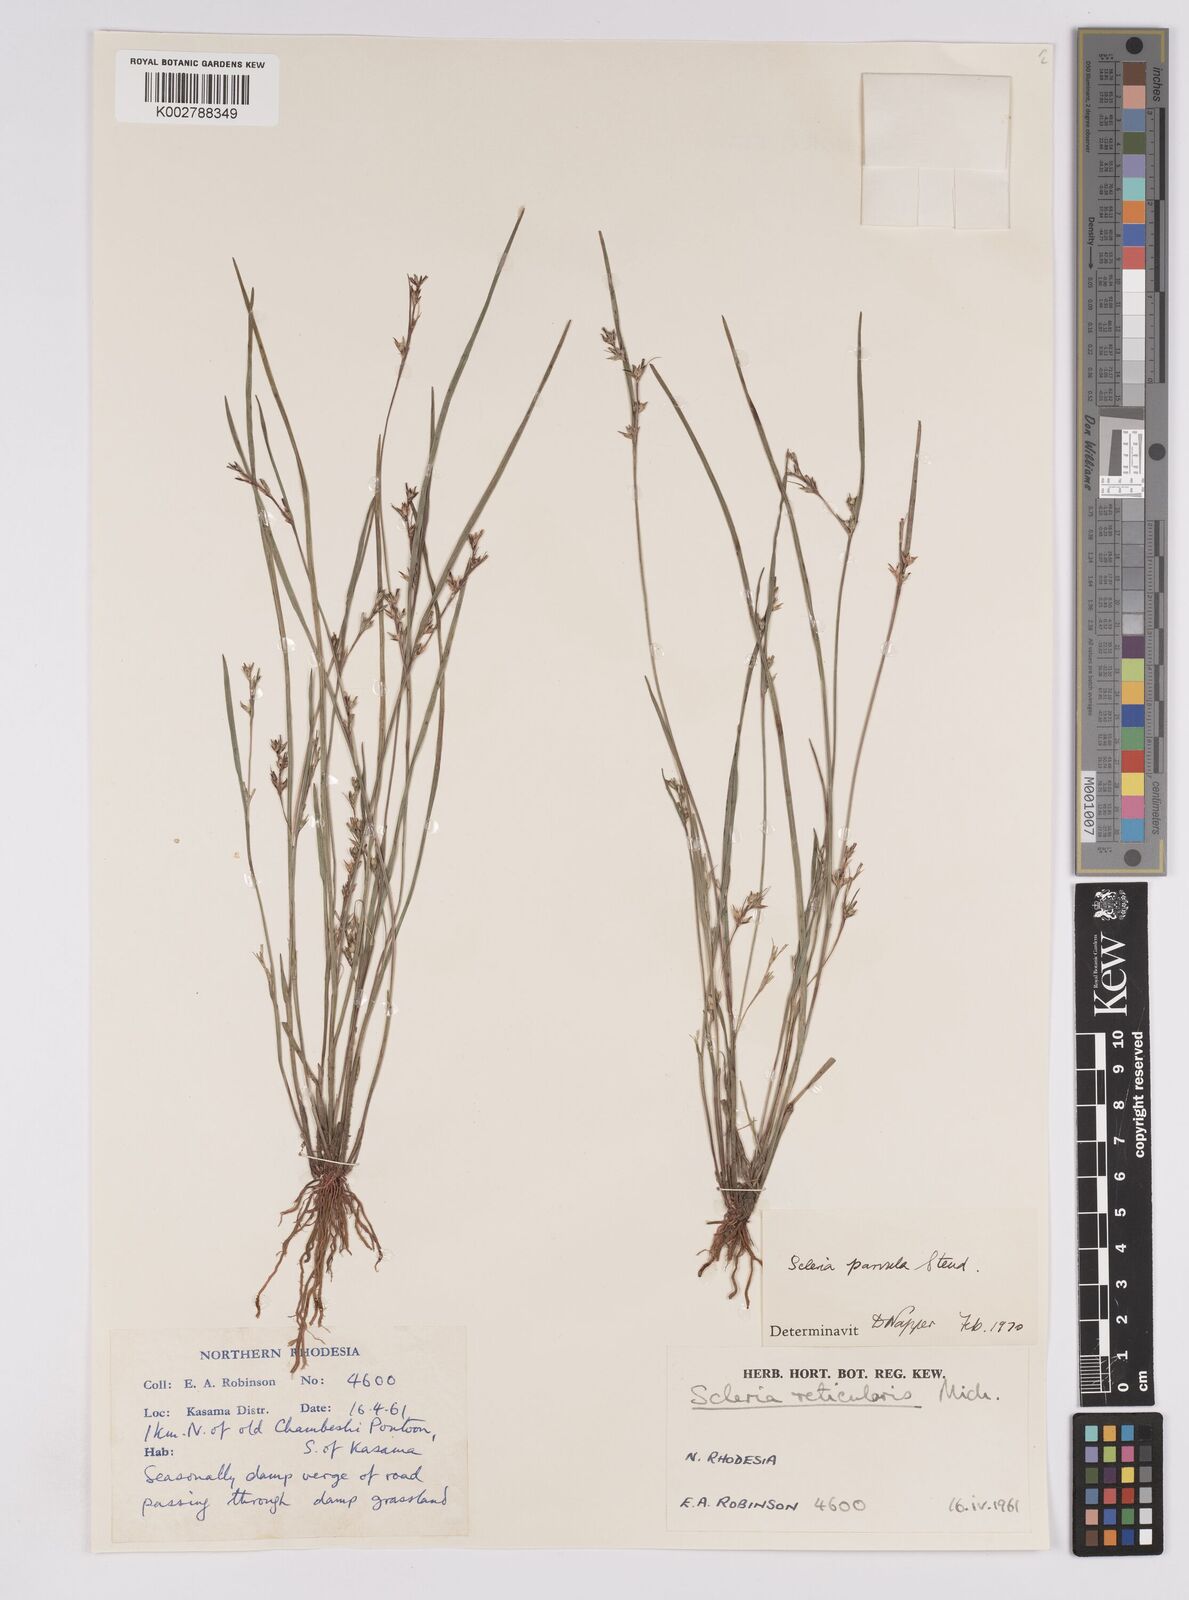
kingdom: Plantae
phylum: Tracheophyta
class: Liliopsida
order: Poales
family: Cyperaceae
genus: Scleria
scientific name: Scleria parvula
